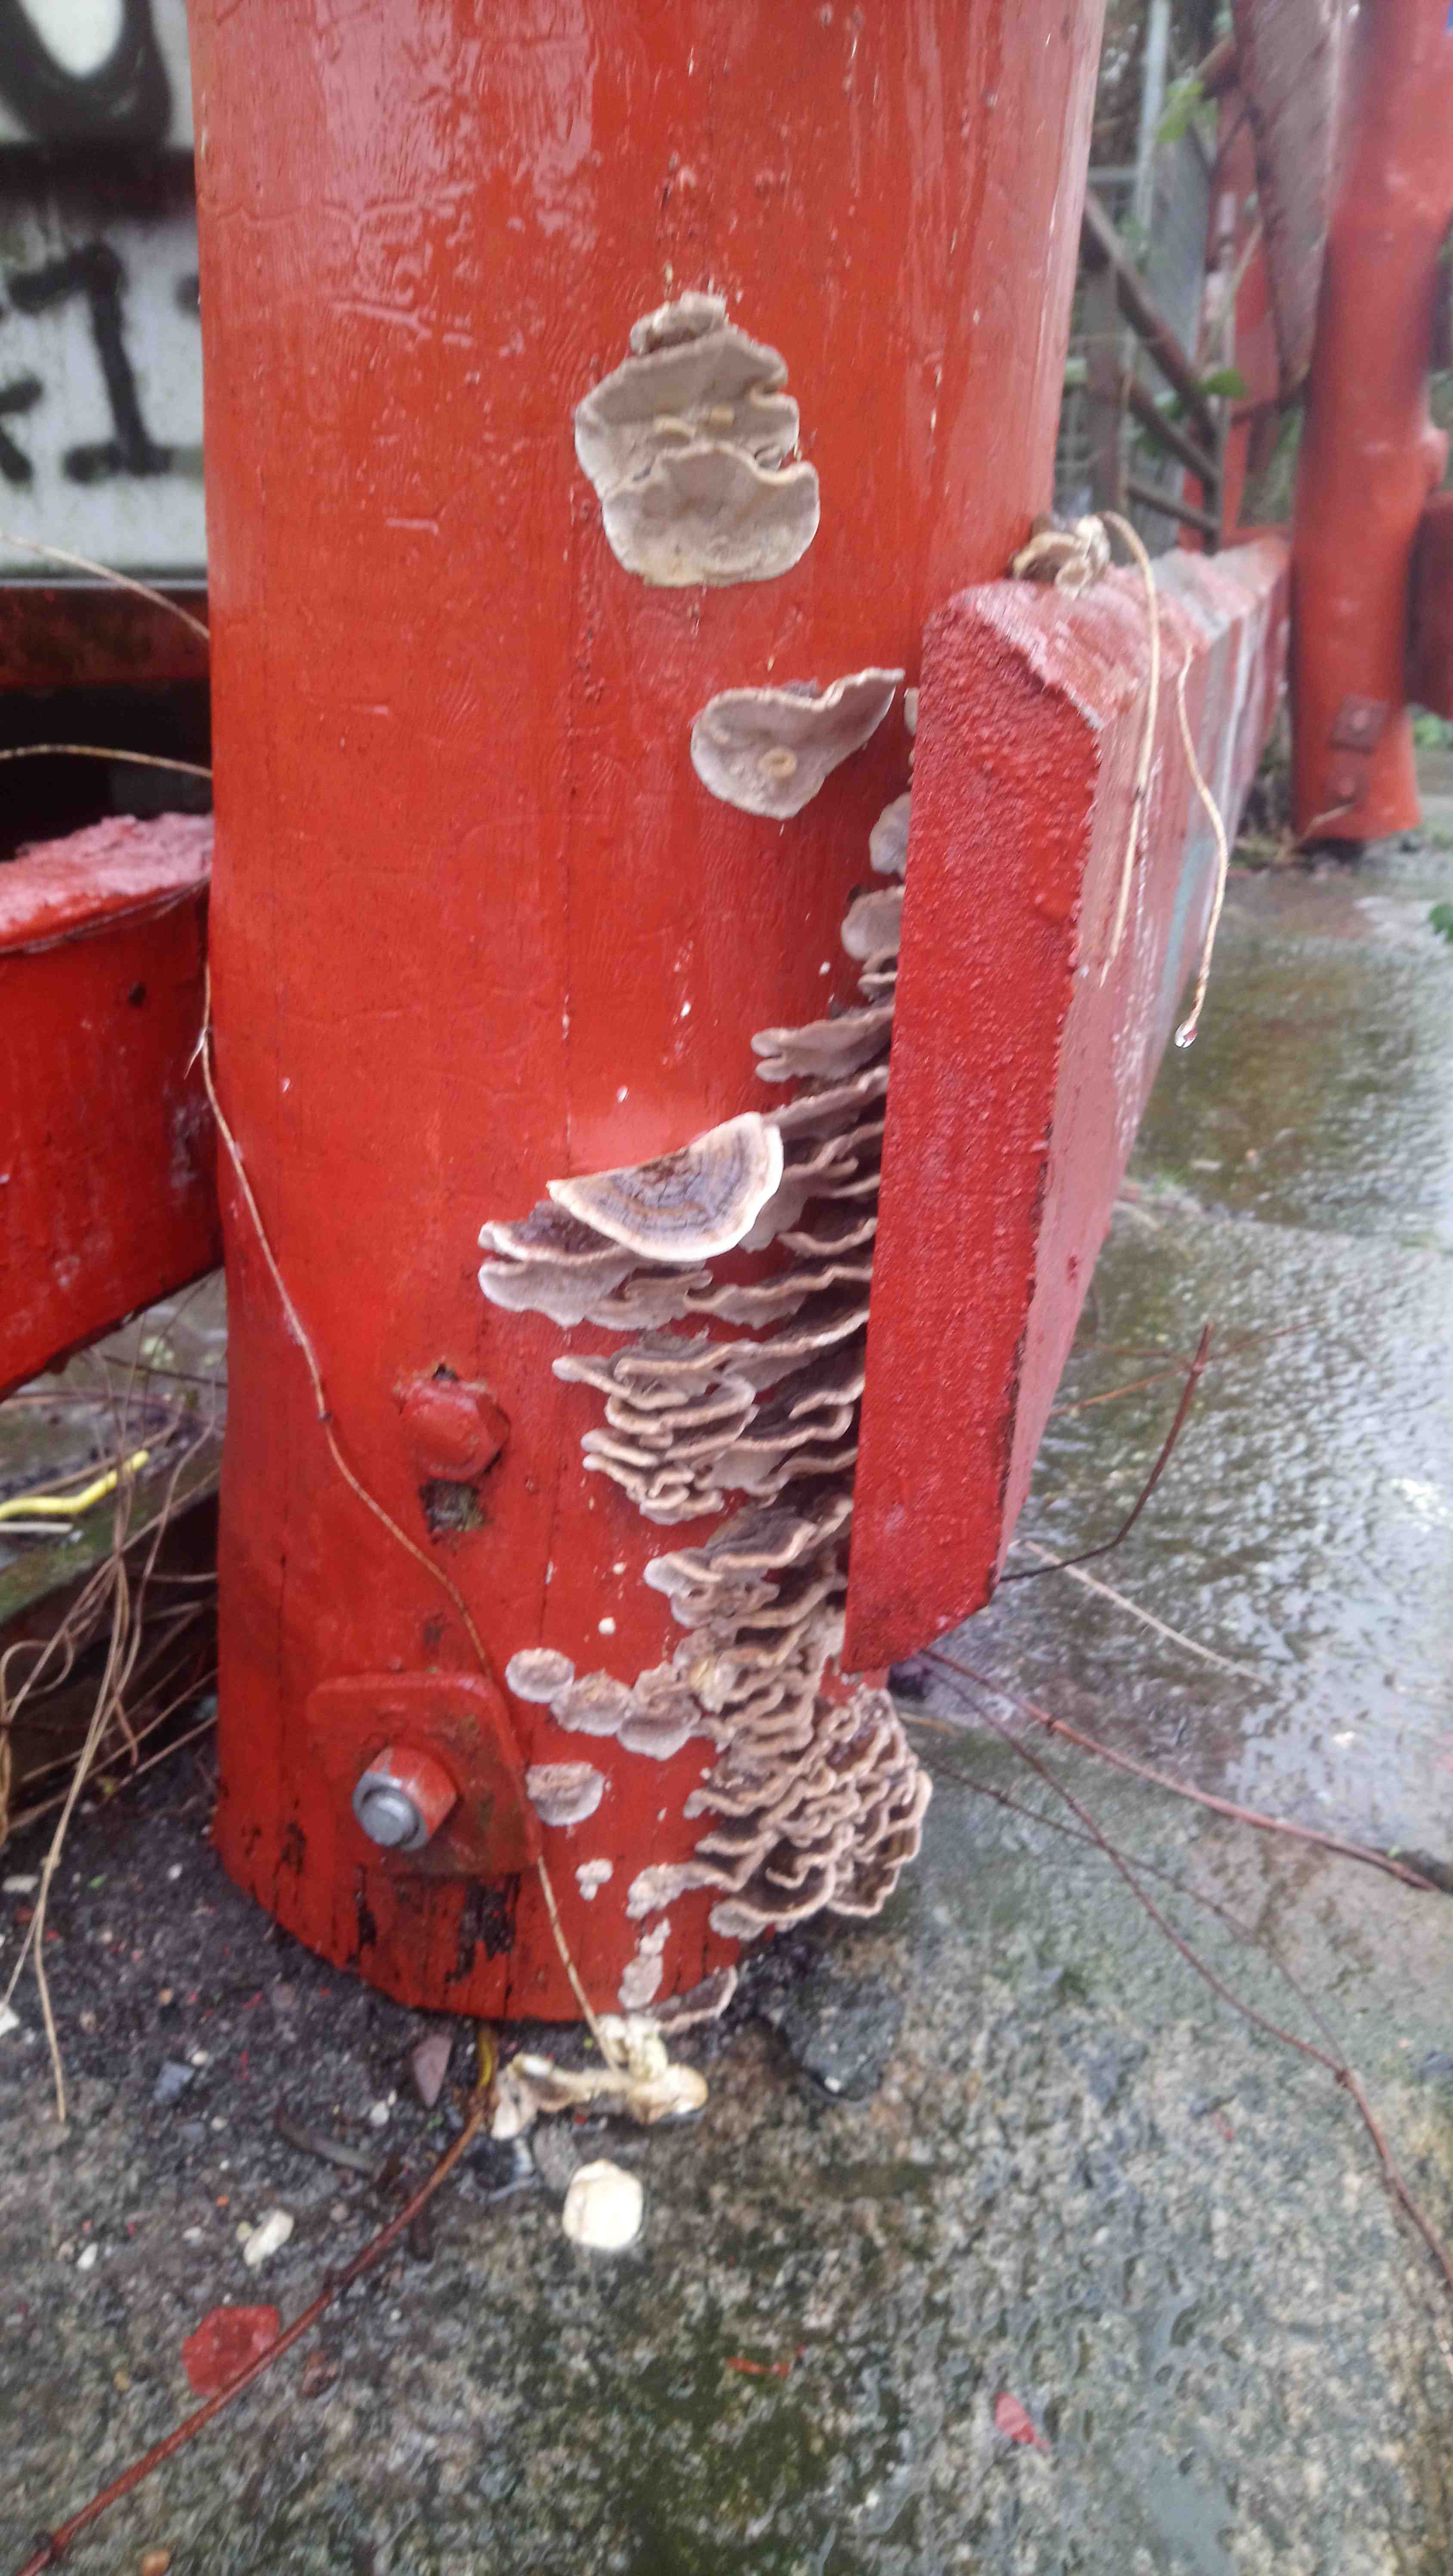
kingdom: Fungi
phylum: Basidiomycota
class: Agaricomycetes
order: Polyporales
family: Polyporaceae
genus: Trametes
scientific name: Trametes versicolor
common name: broget læderporesvamp
